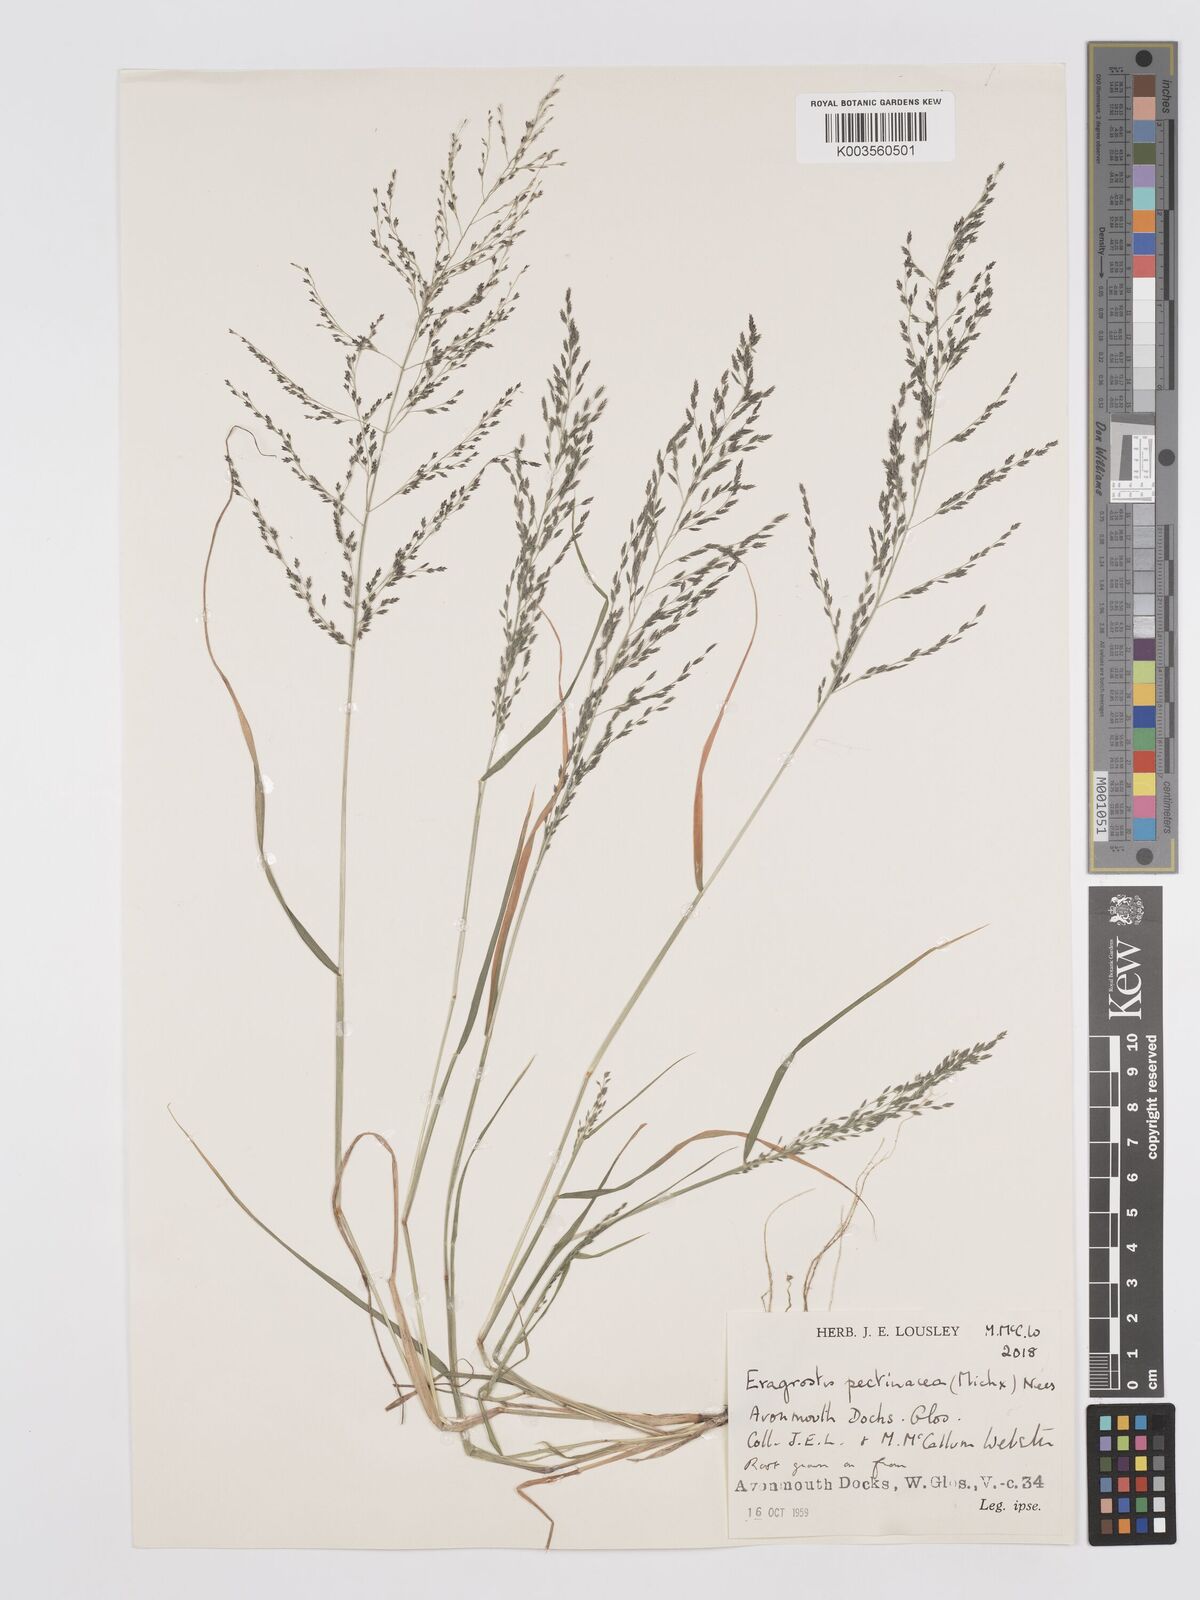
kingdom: Plantae
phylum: Tracheophyta
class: Liliopsida
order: Poales
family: Poaceae
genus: Eragrostis
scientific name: Eragrostis pectinacea
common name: Tufted lovegrass
